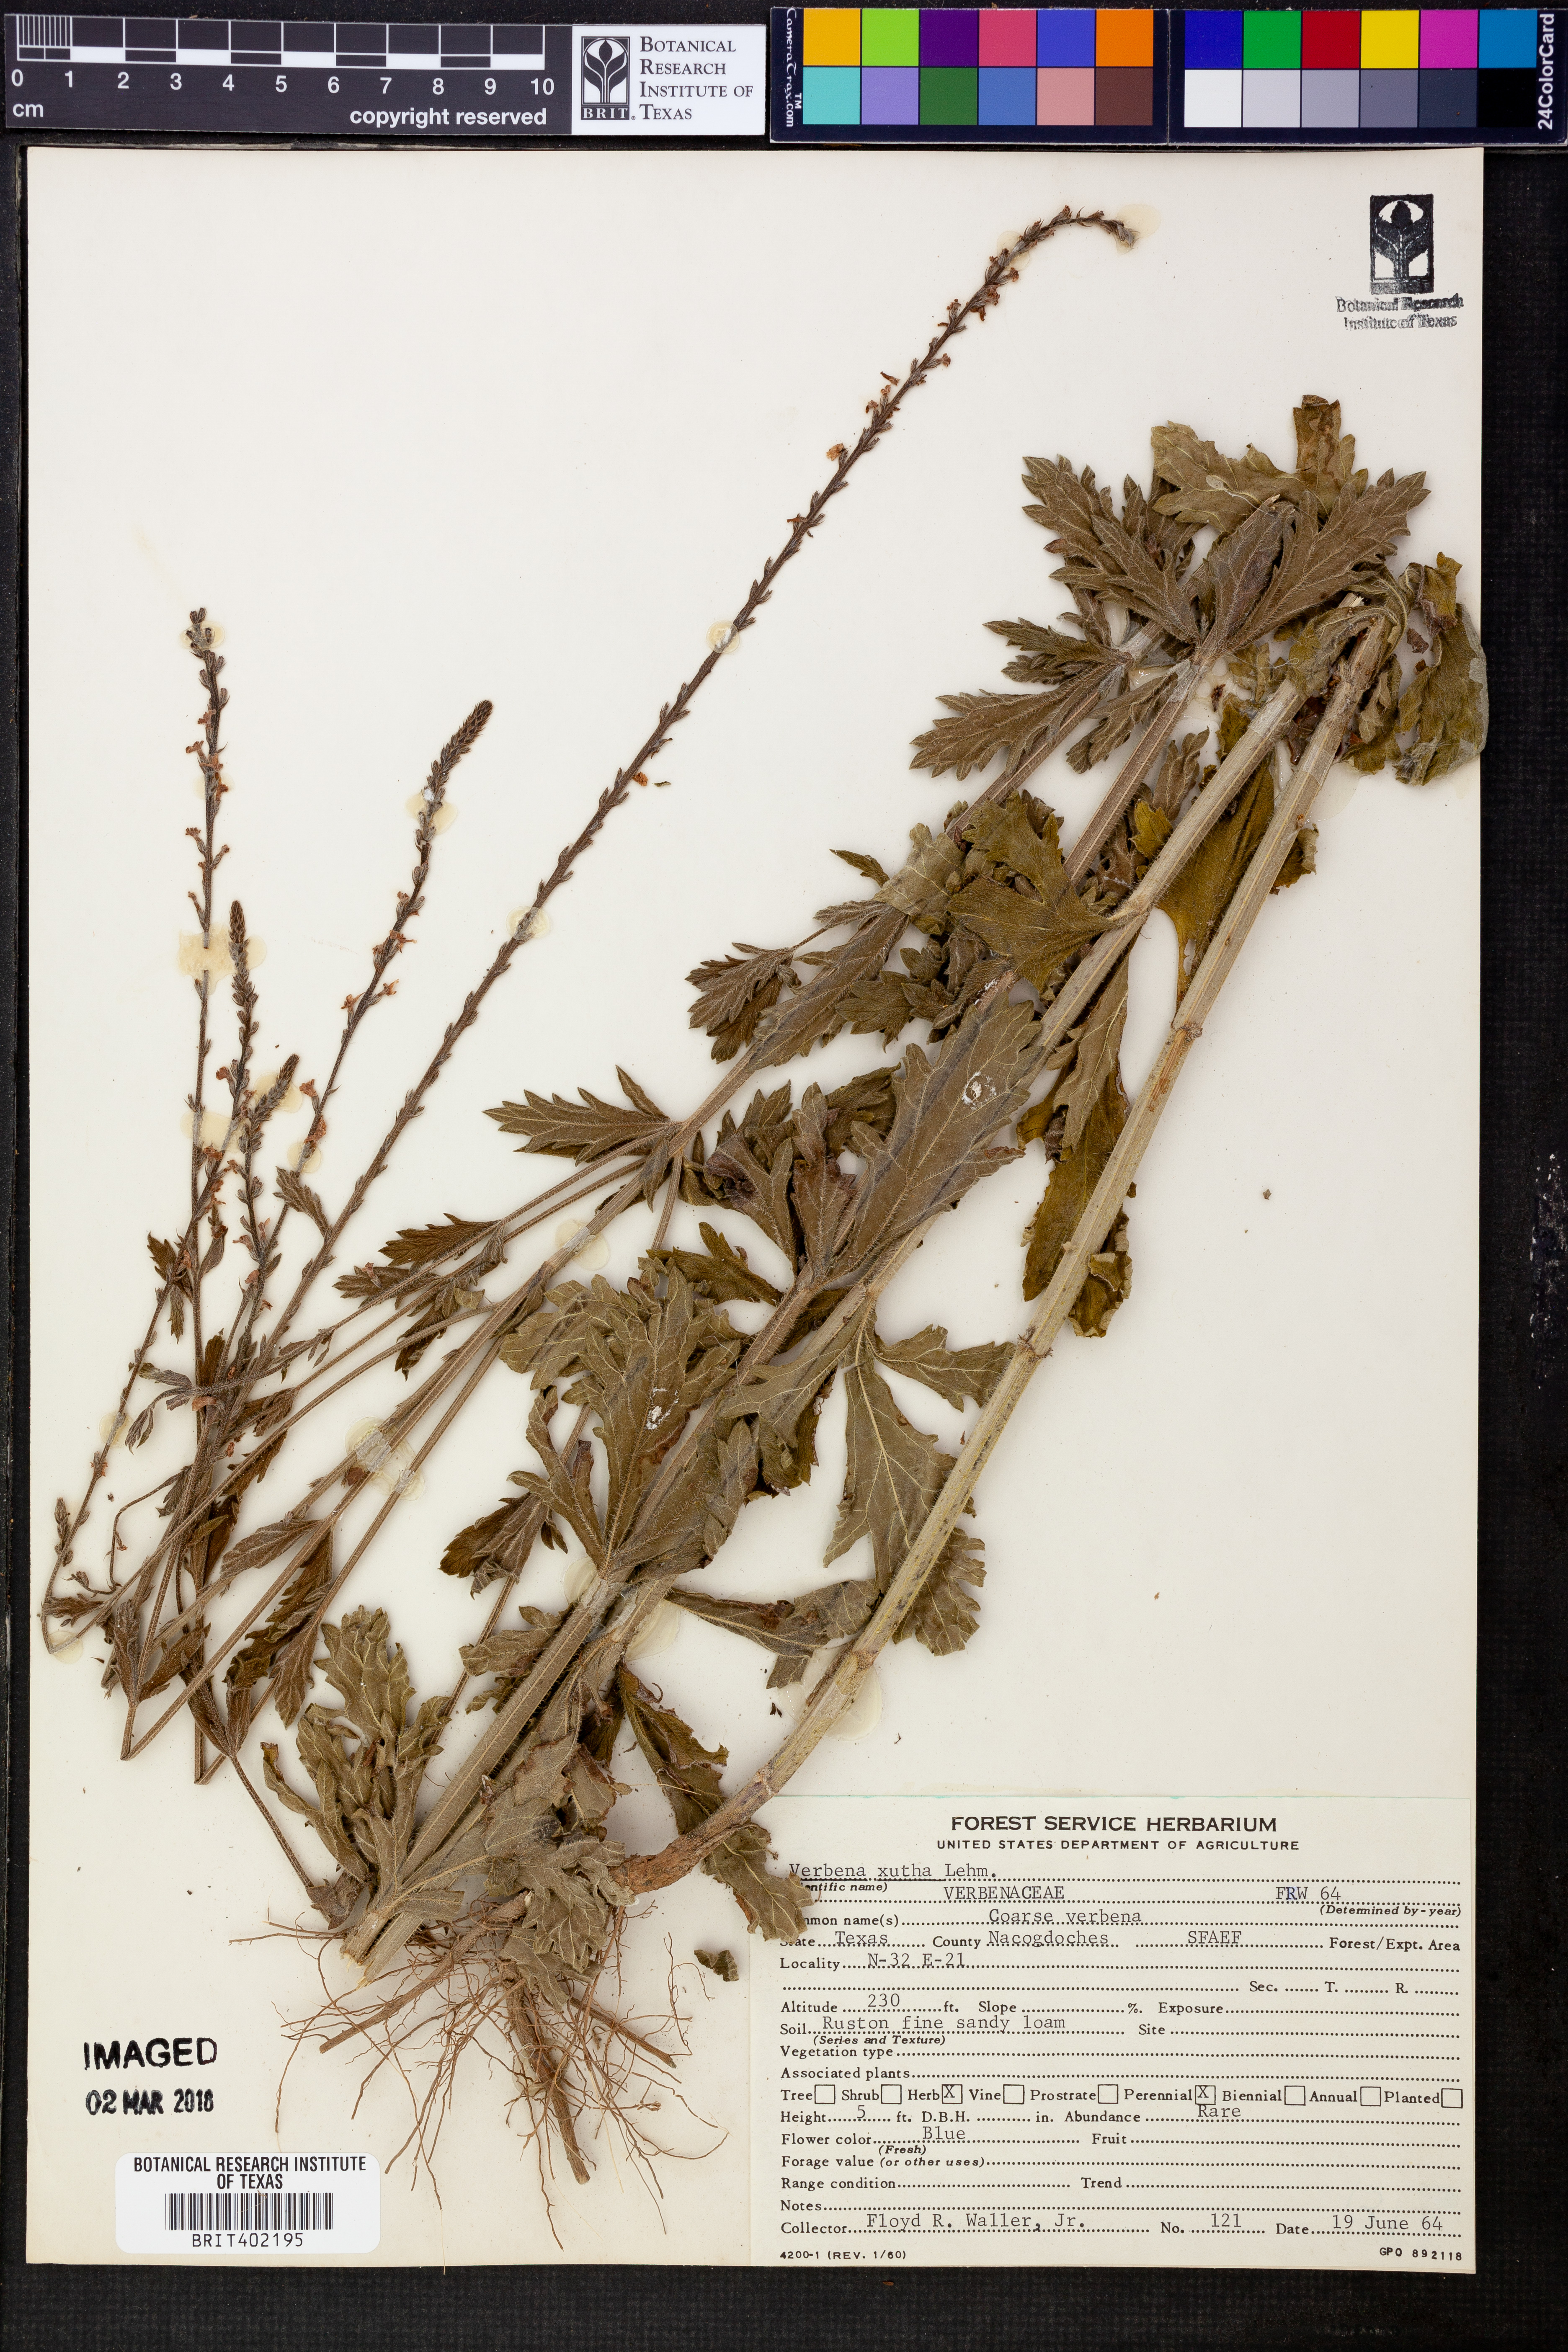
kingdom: Plantae
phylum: Tracheophyta
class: Magnoliopsida
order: Lamiales
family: Verbenaceae
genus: Verbena
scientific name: Verbena xutha
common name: Gulf vervain
